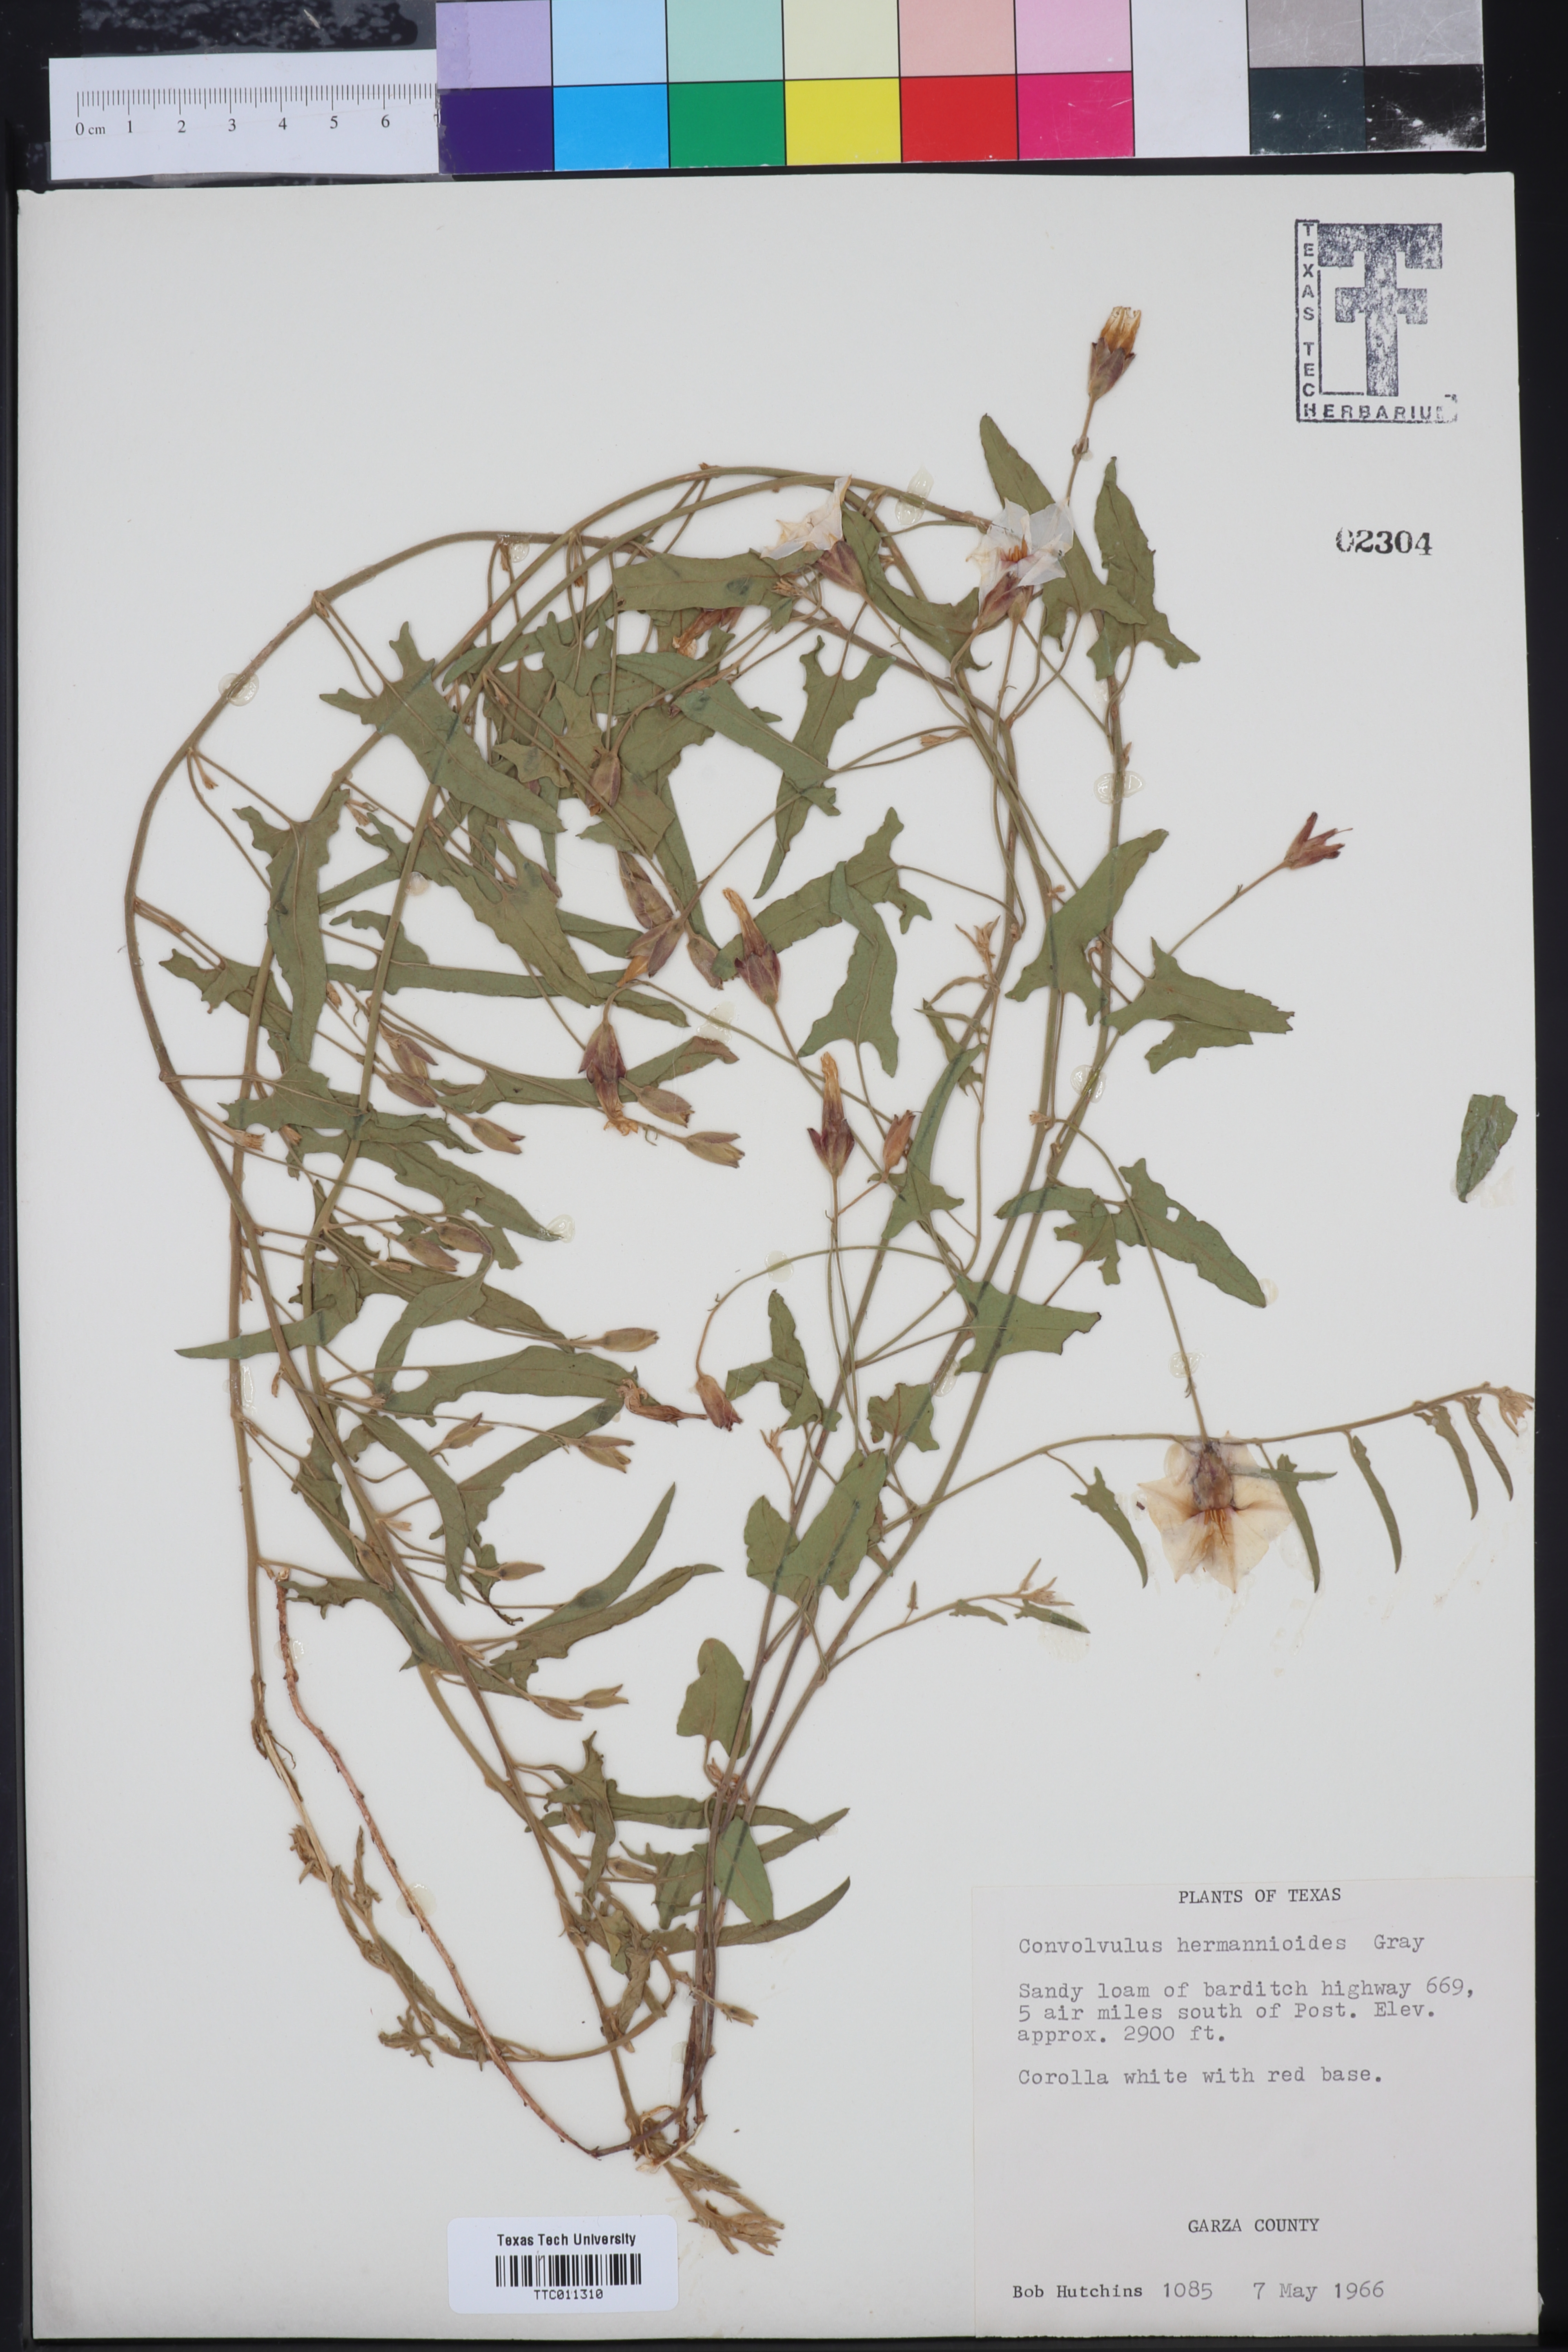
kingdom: Plantae
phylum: Tracheophyta
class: Magnoliopsida
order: Solanales
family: Convolvulaceae
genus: Convolvulus
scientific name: Convolvulus equitans
